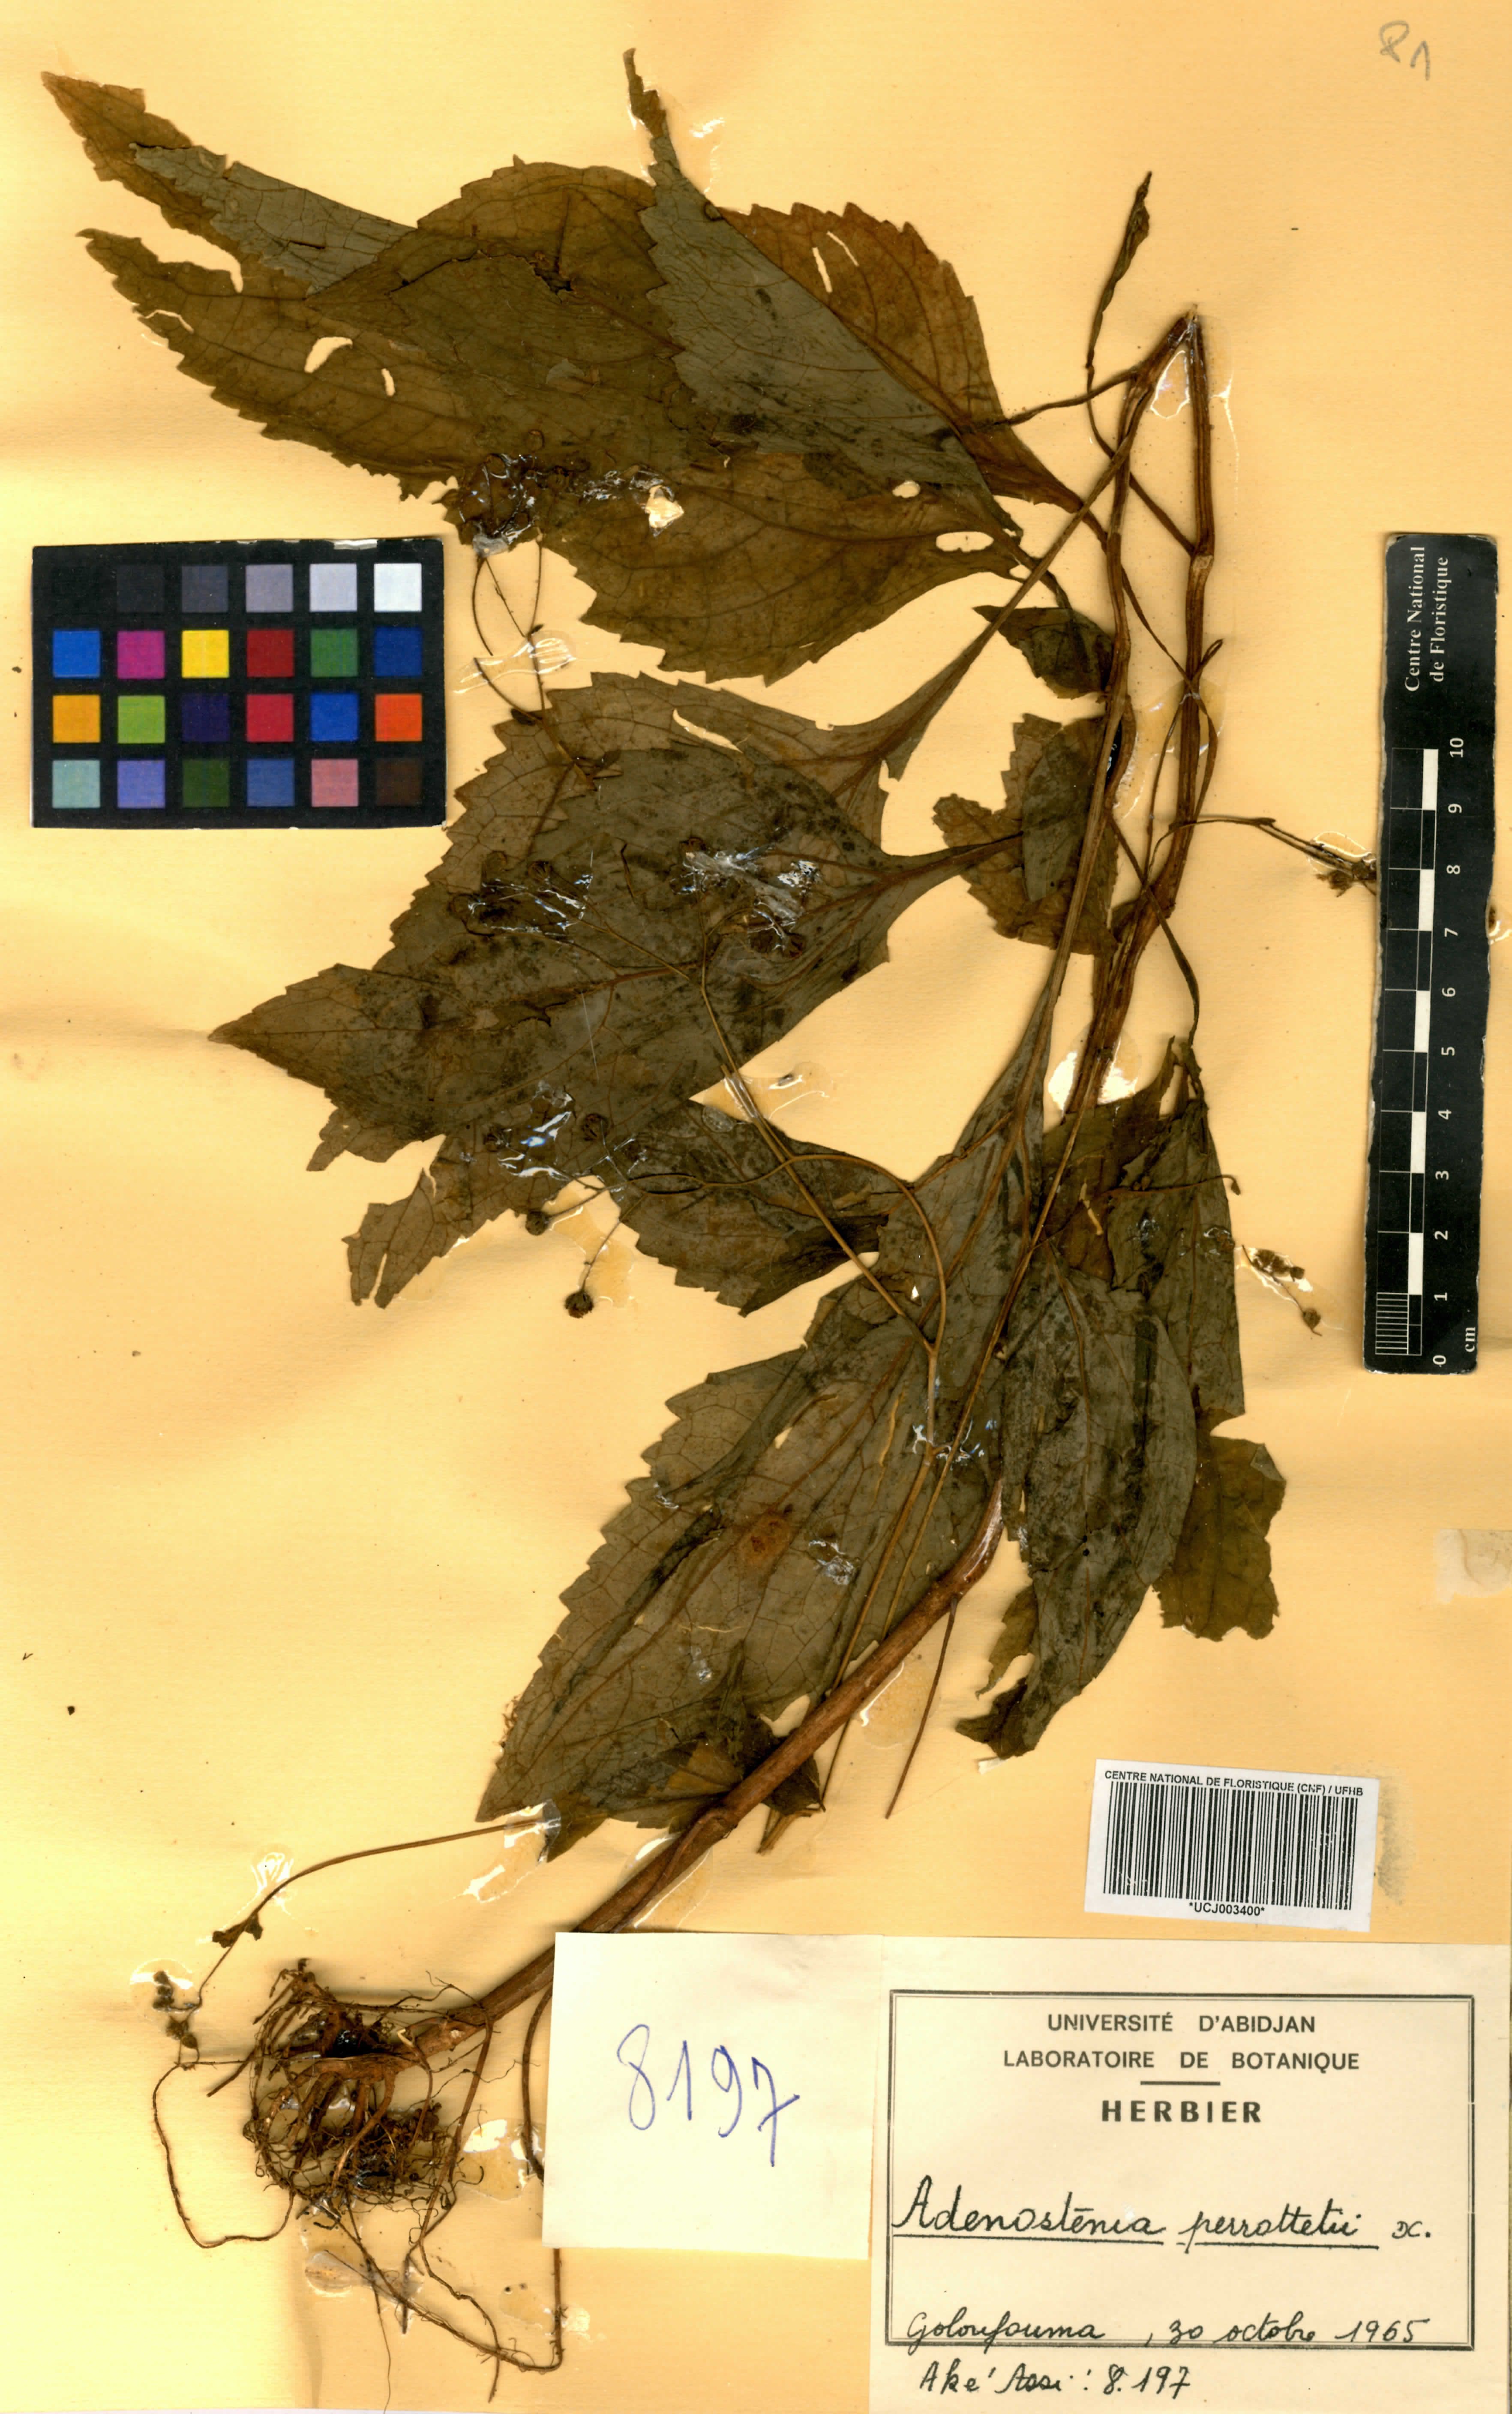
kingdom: Plantae
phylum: Tracheophyta
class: Magnoliopsida
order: Asterales
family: Asteraceae
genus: Adenostemma
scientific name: Adenostemma viscosum
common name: Dungweed
